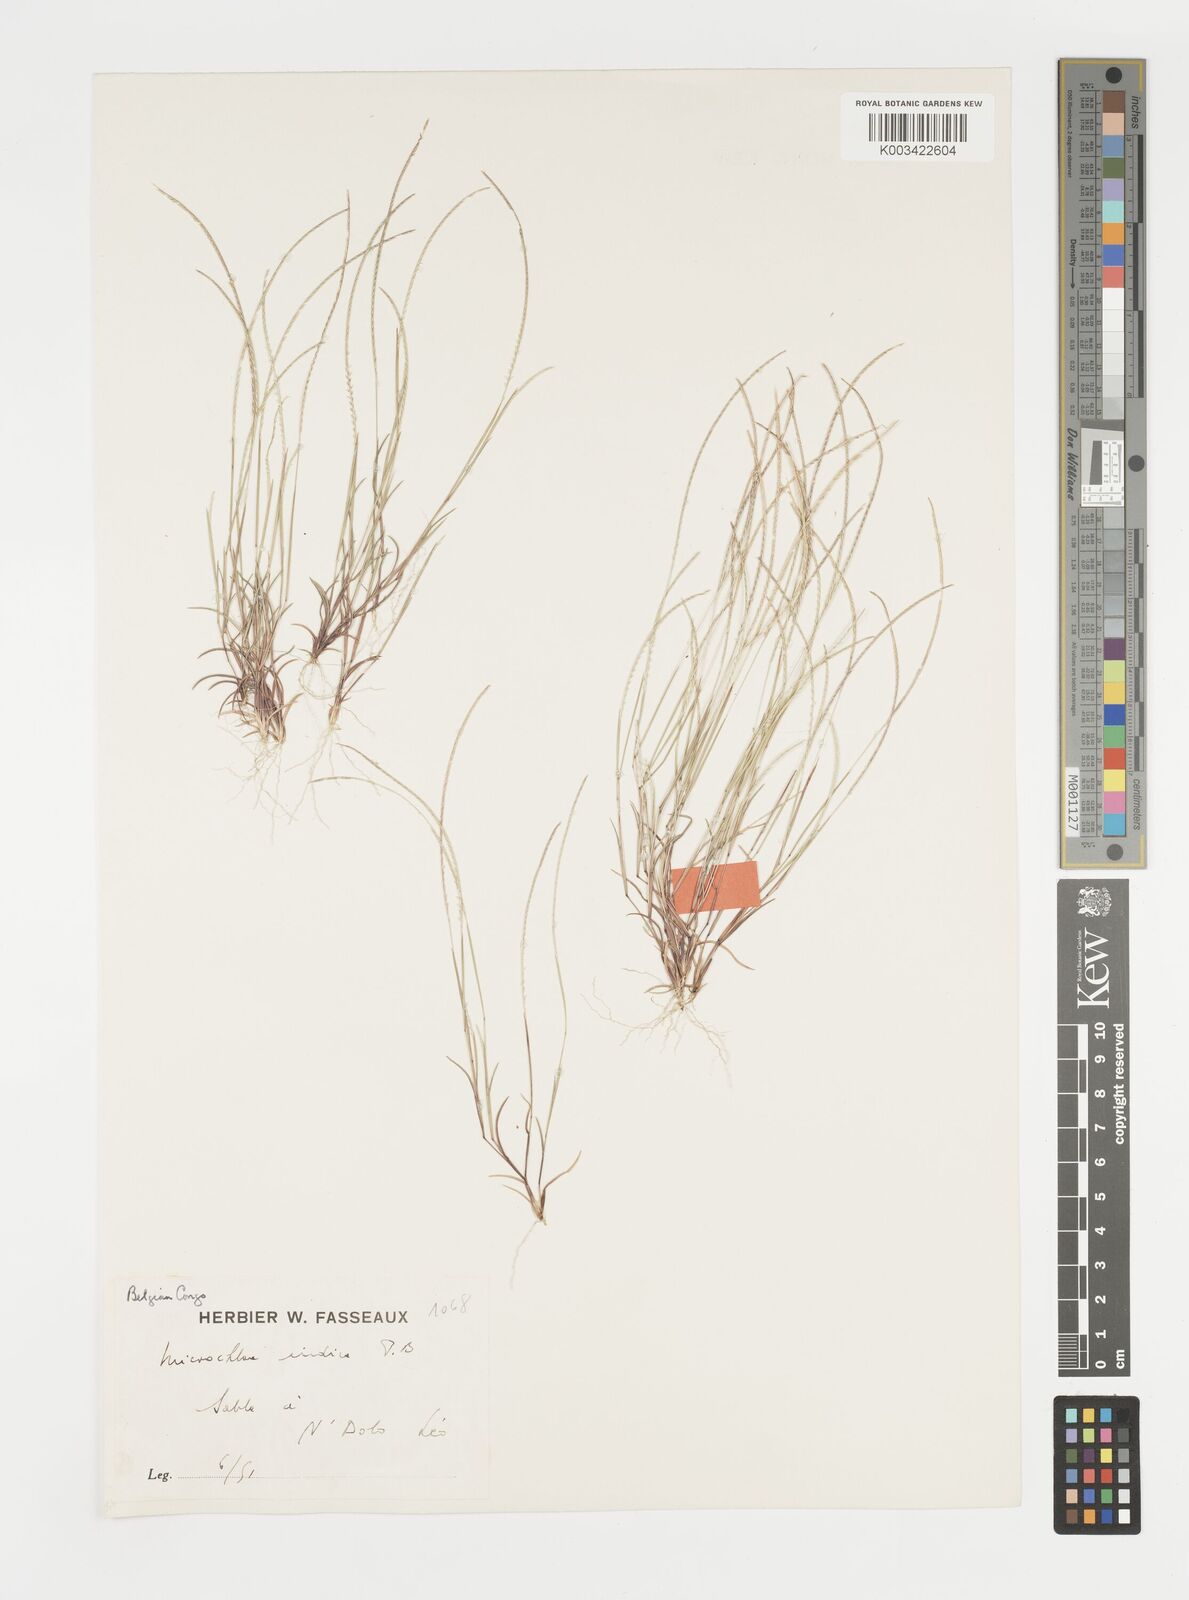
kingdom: Plantae
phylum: Tracheophyta
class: Liliopsida
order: Poales
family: Poaceae
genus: Microchloa
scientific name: Microchloa indica
